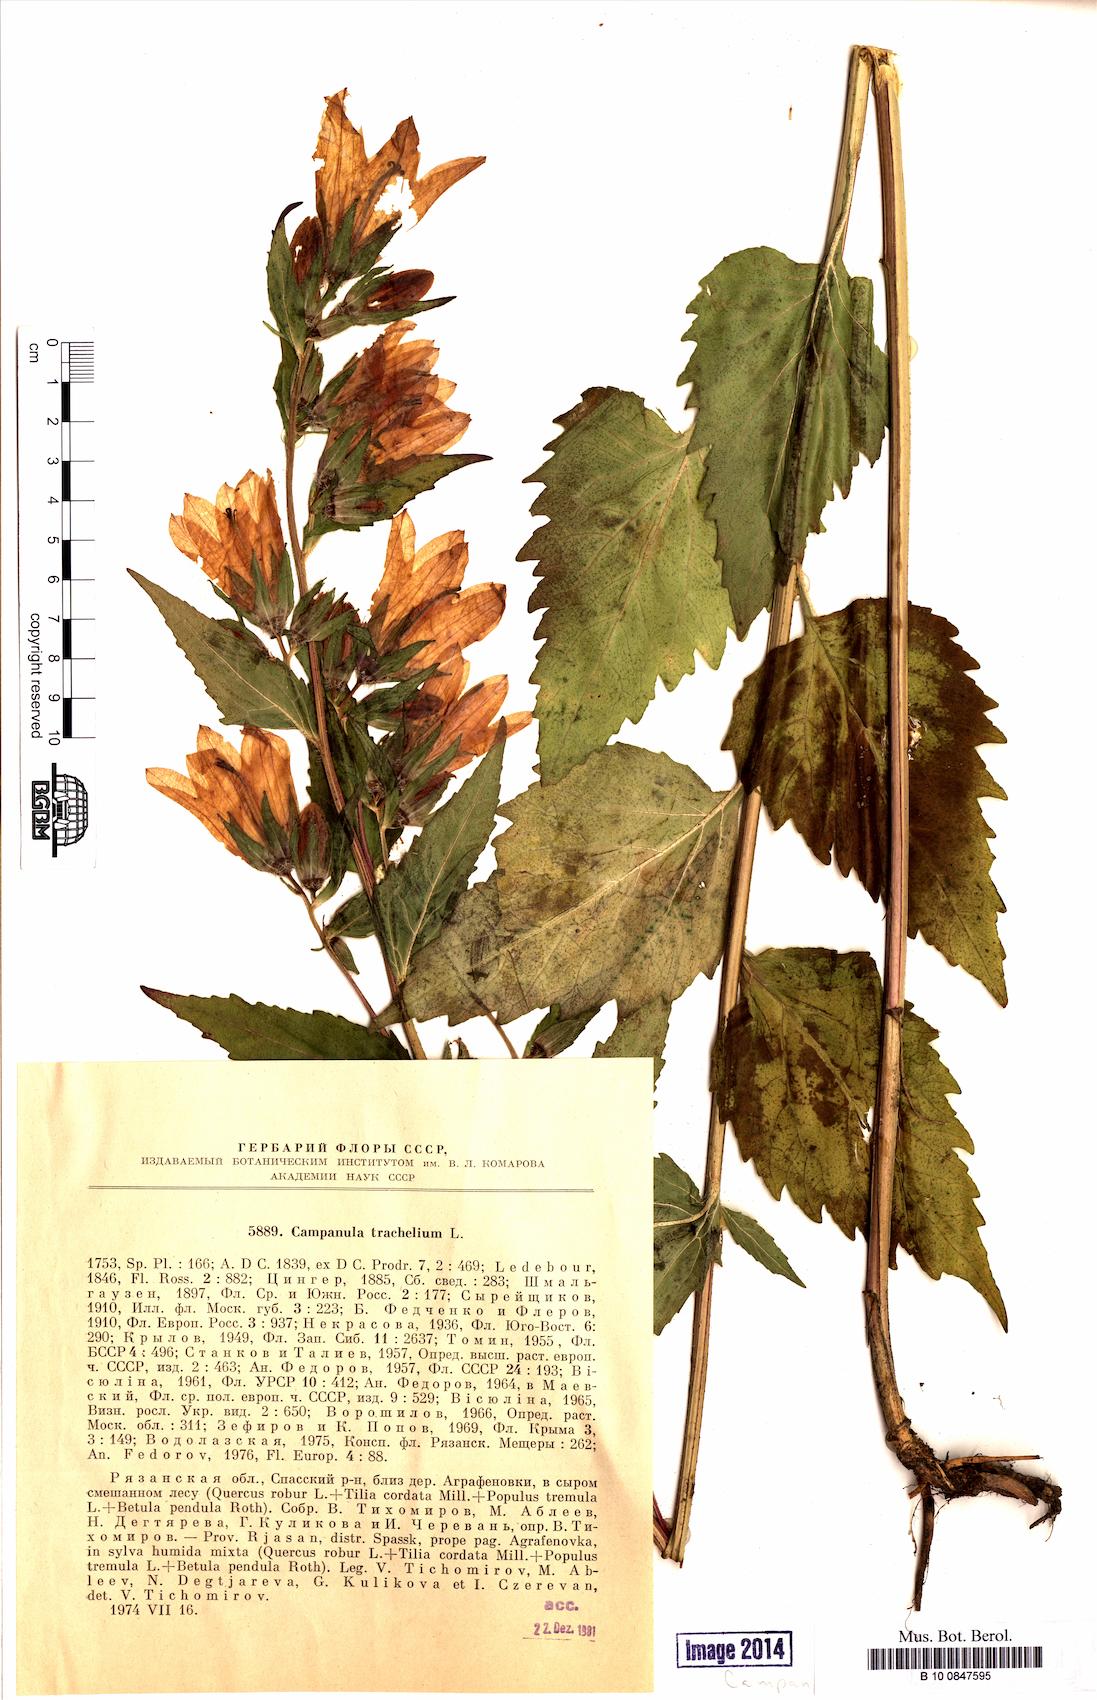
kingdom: Plantae
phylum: Tracheophyta
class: Magnoliopsida
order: Asterales
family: Campanulaceae
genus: Campanula
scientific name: Campanula trachelium
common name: Nettle-leaved bellflower
